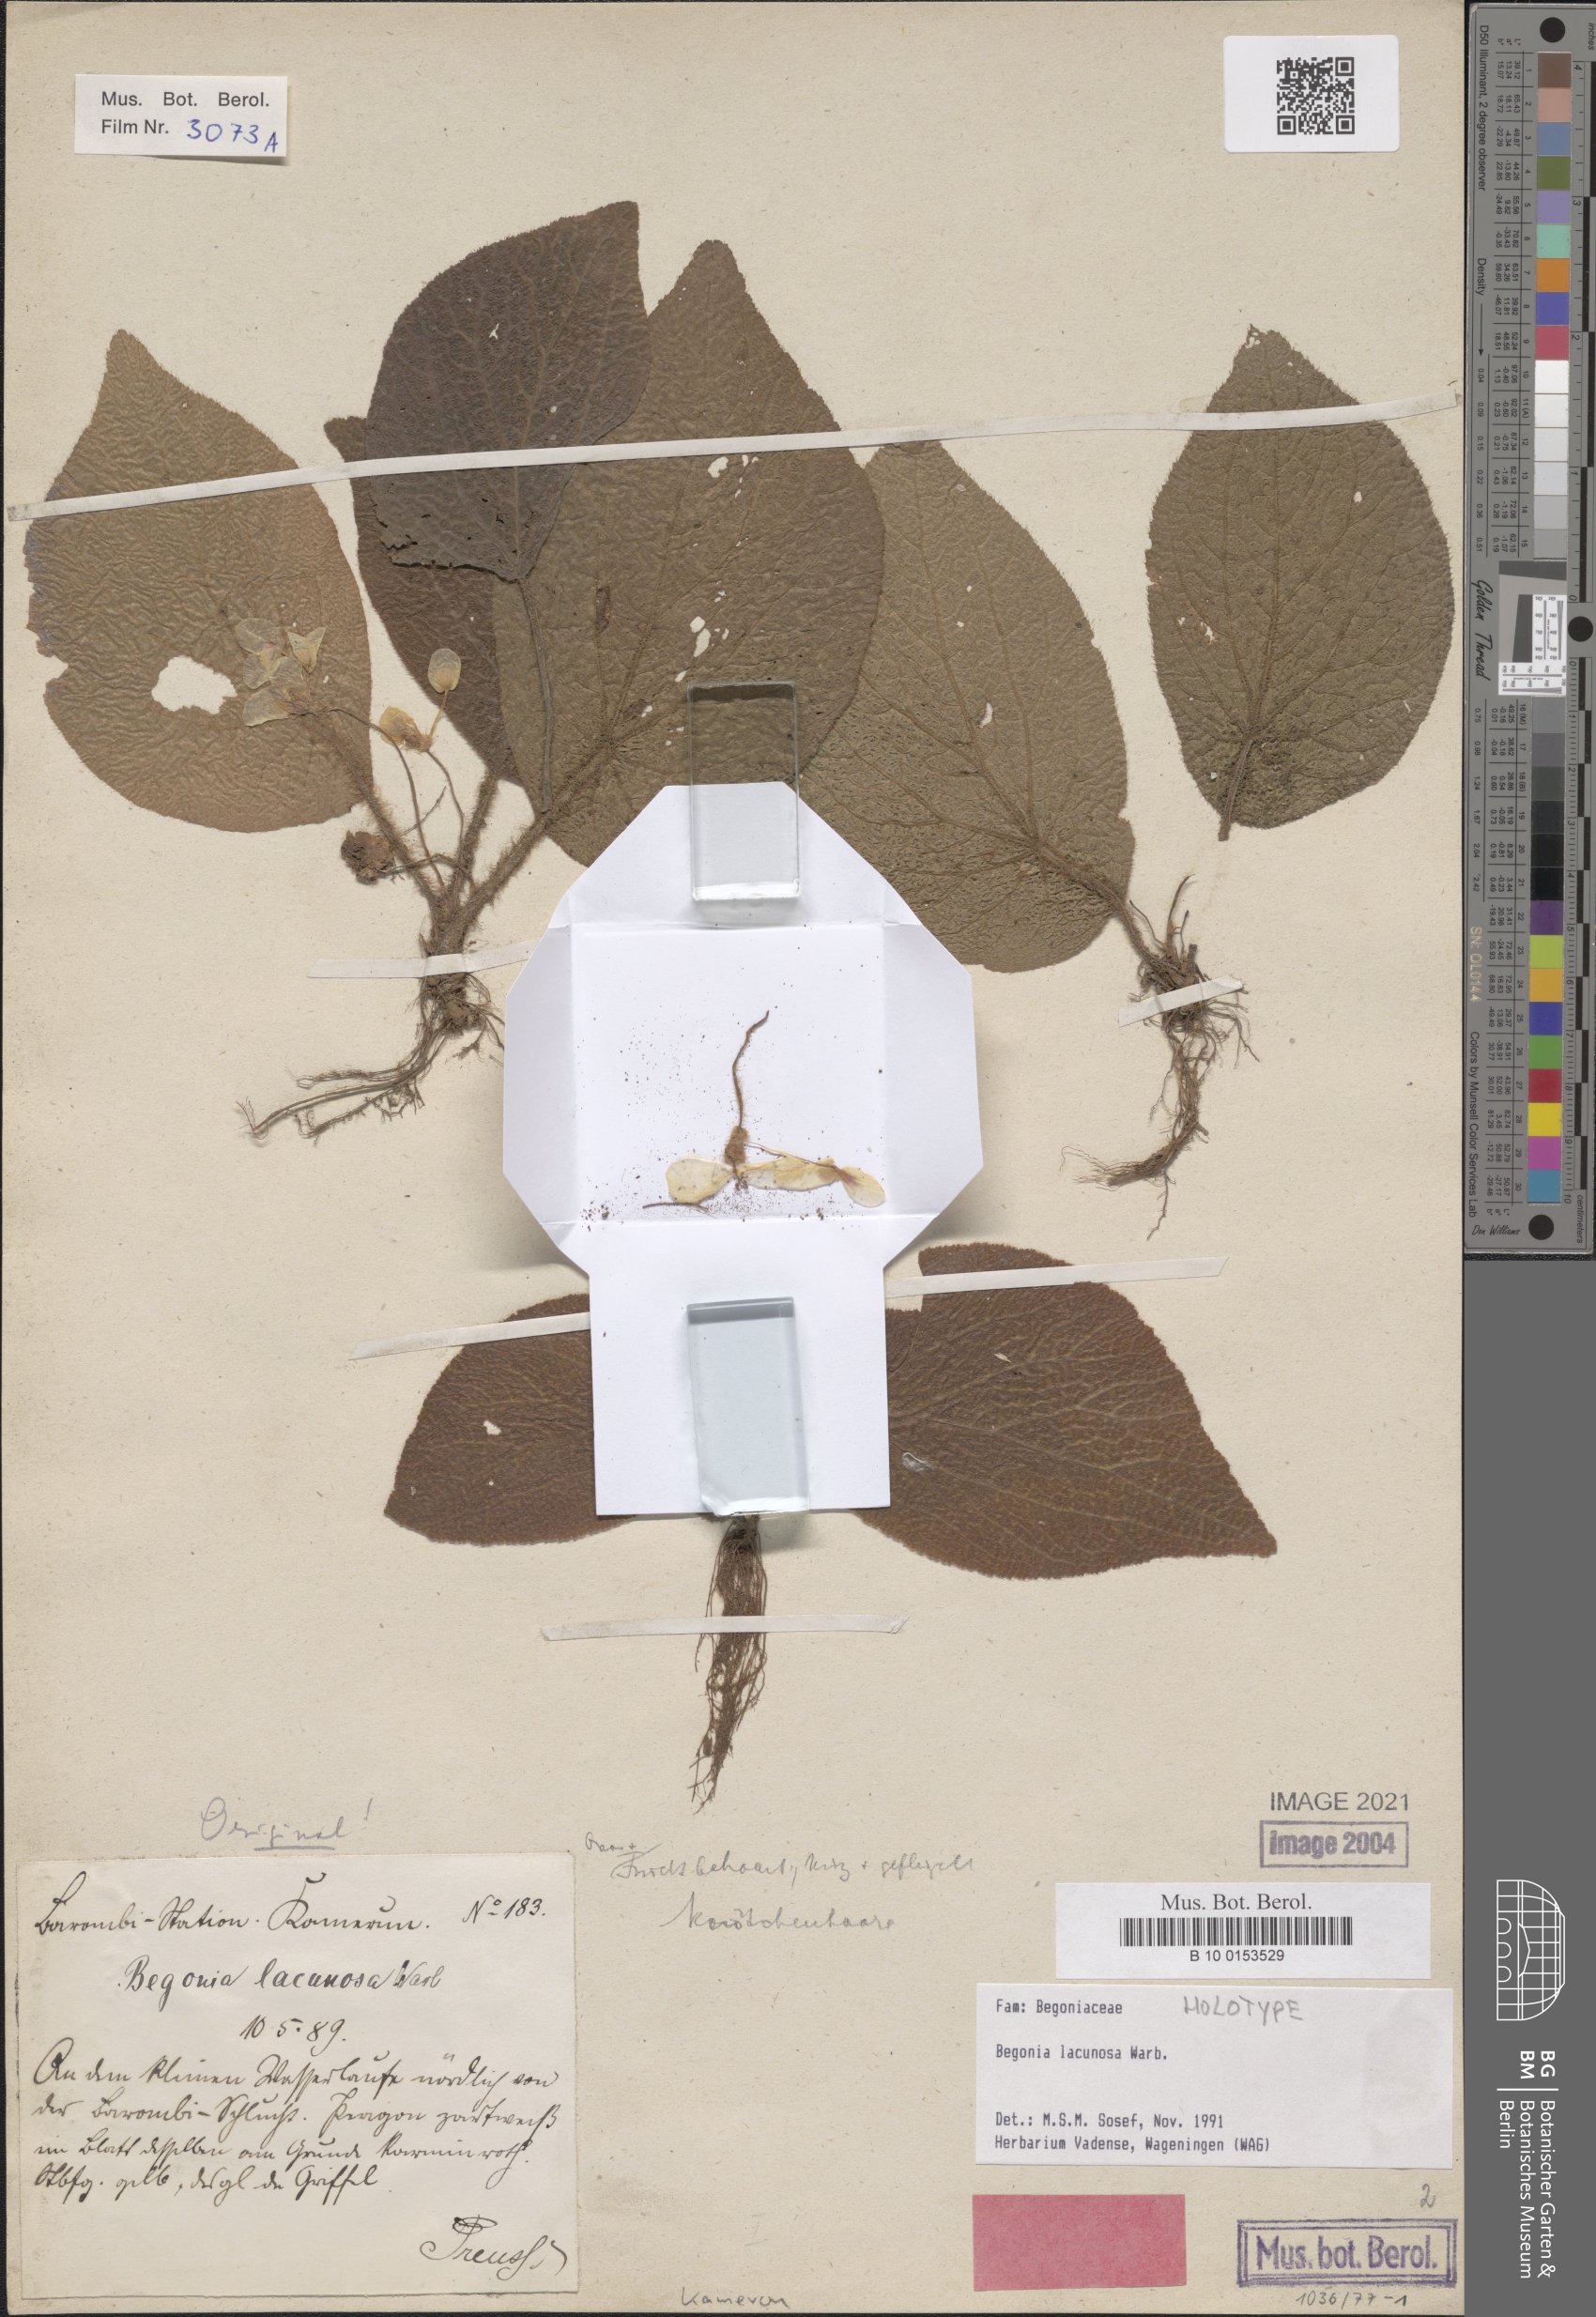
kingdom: Plantae
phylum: Tracheophyta
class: Magnoliopsida
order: Cucurbitales
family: Begoniaceae
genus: Begonia
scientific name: Begonia lacunosa
